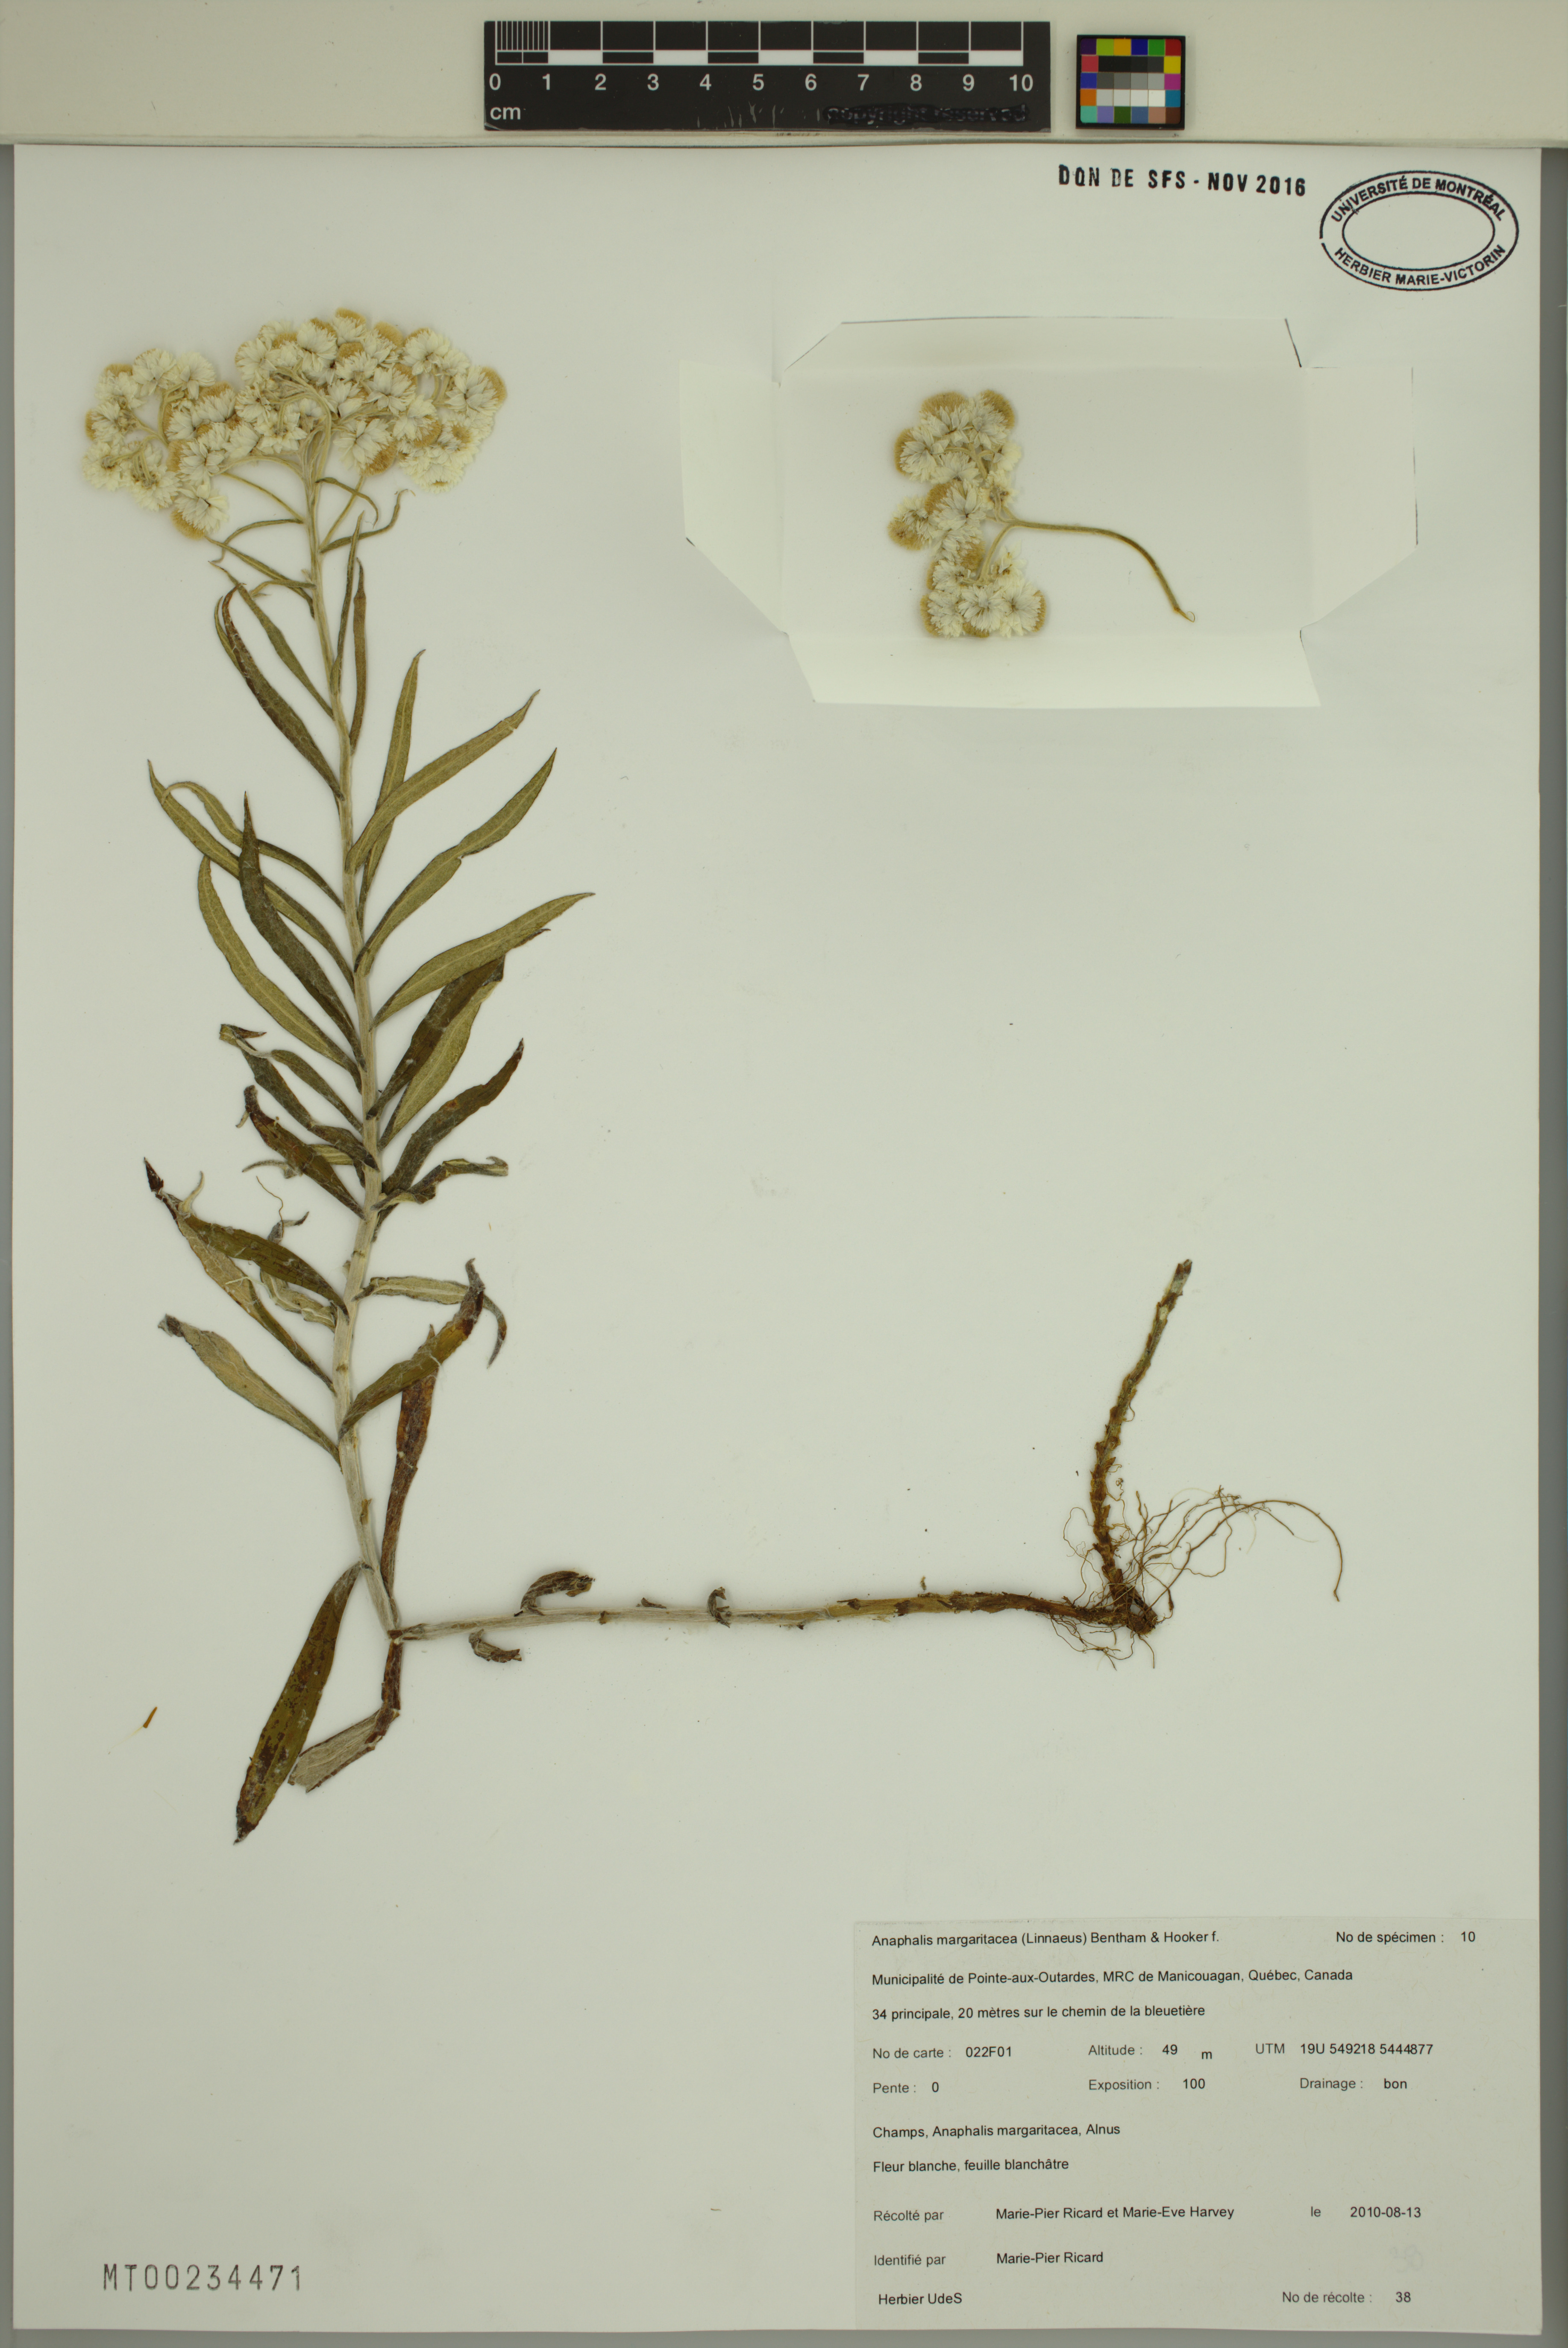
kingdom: Plantae
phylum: Tracheophyta
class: Magnoliopsida
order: Asterales
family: Asteraceae
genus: Anaphalis
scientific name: Anaphalis margaritacea
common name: Pearly everlasting
